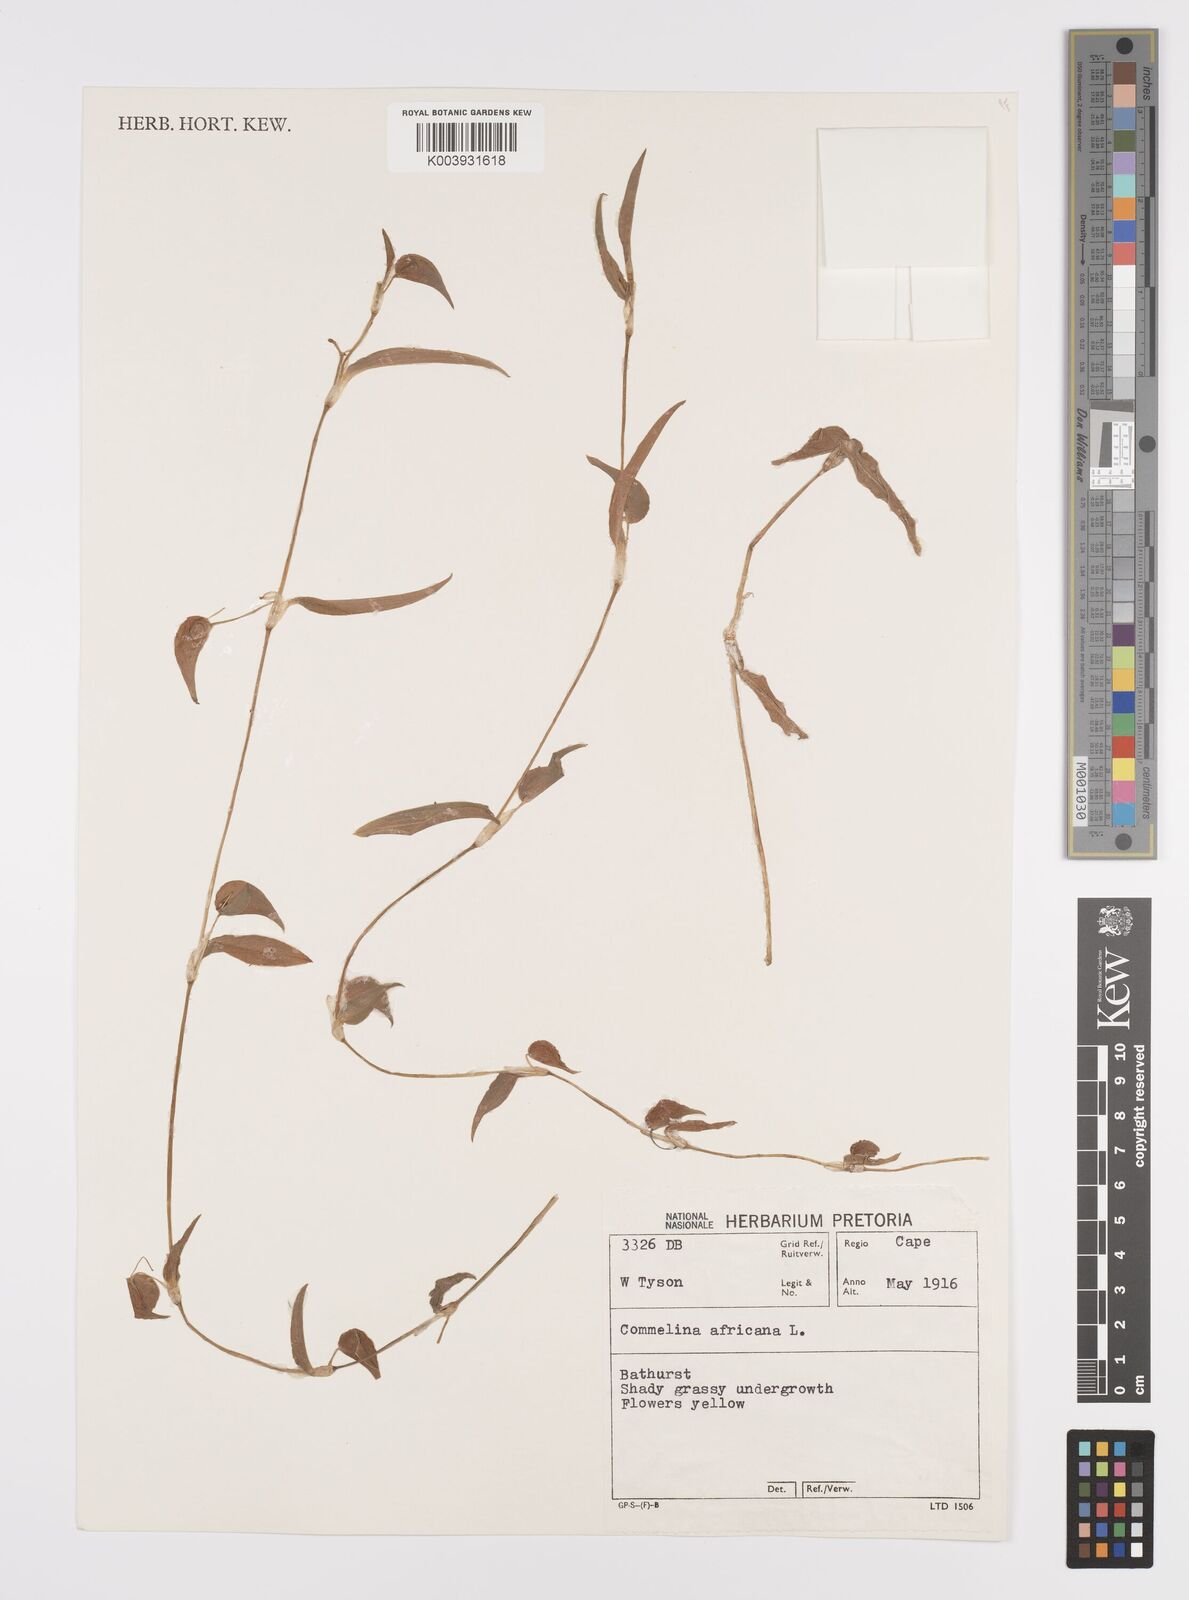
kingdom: Plantae
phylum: Tracheophyta
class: Liliopsida
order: Commelinales
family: Commelinaceae
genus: Commelina
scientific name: Commelina africana
